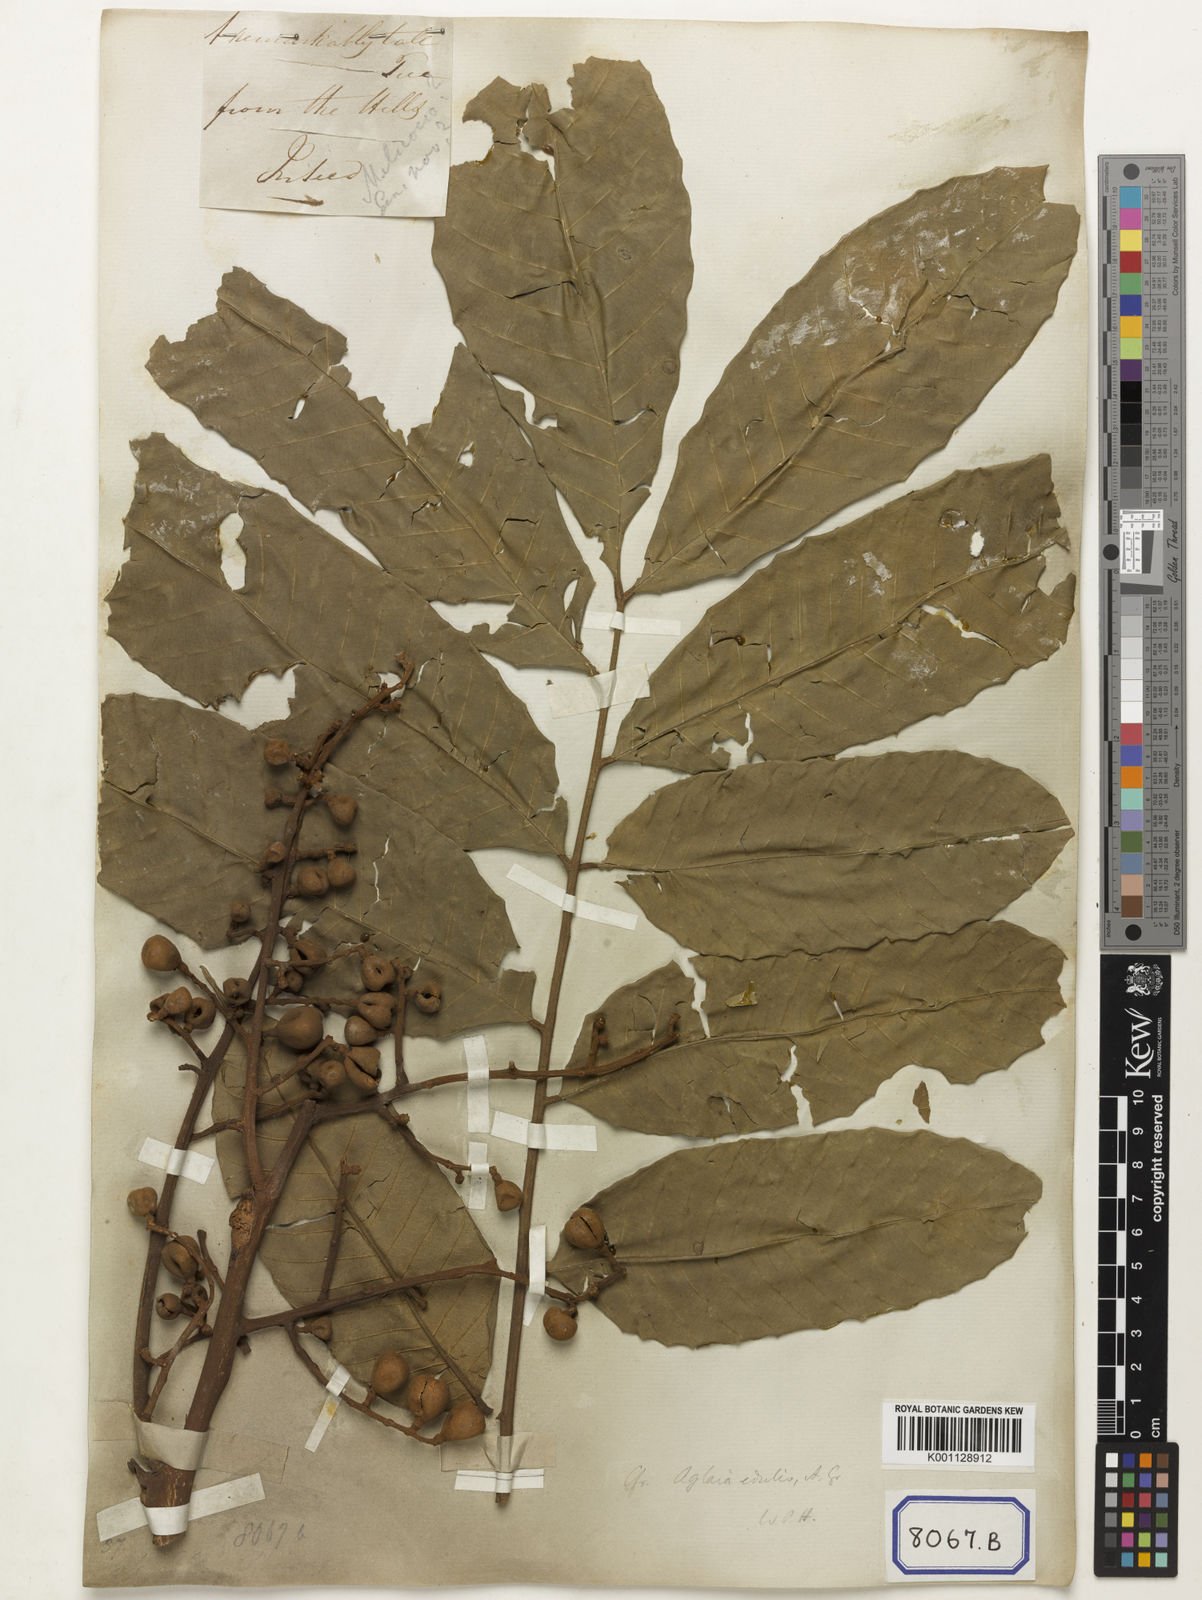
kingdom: Plantae
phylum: Tracheophyta
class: Magnoliopsida
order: Sapindales
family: Sapindaceae
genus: Cupania
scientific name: Cupania
